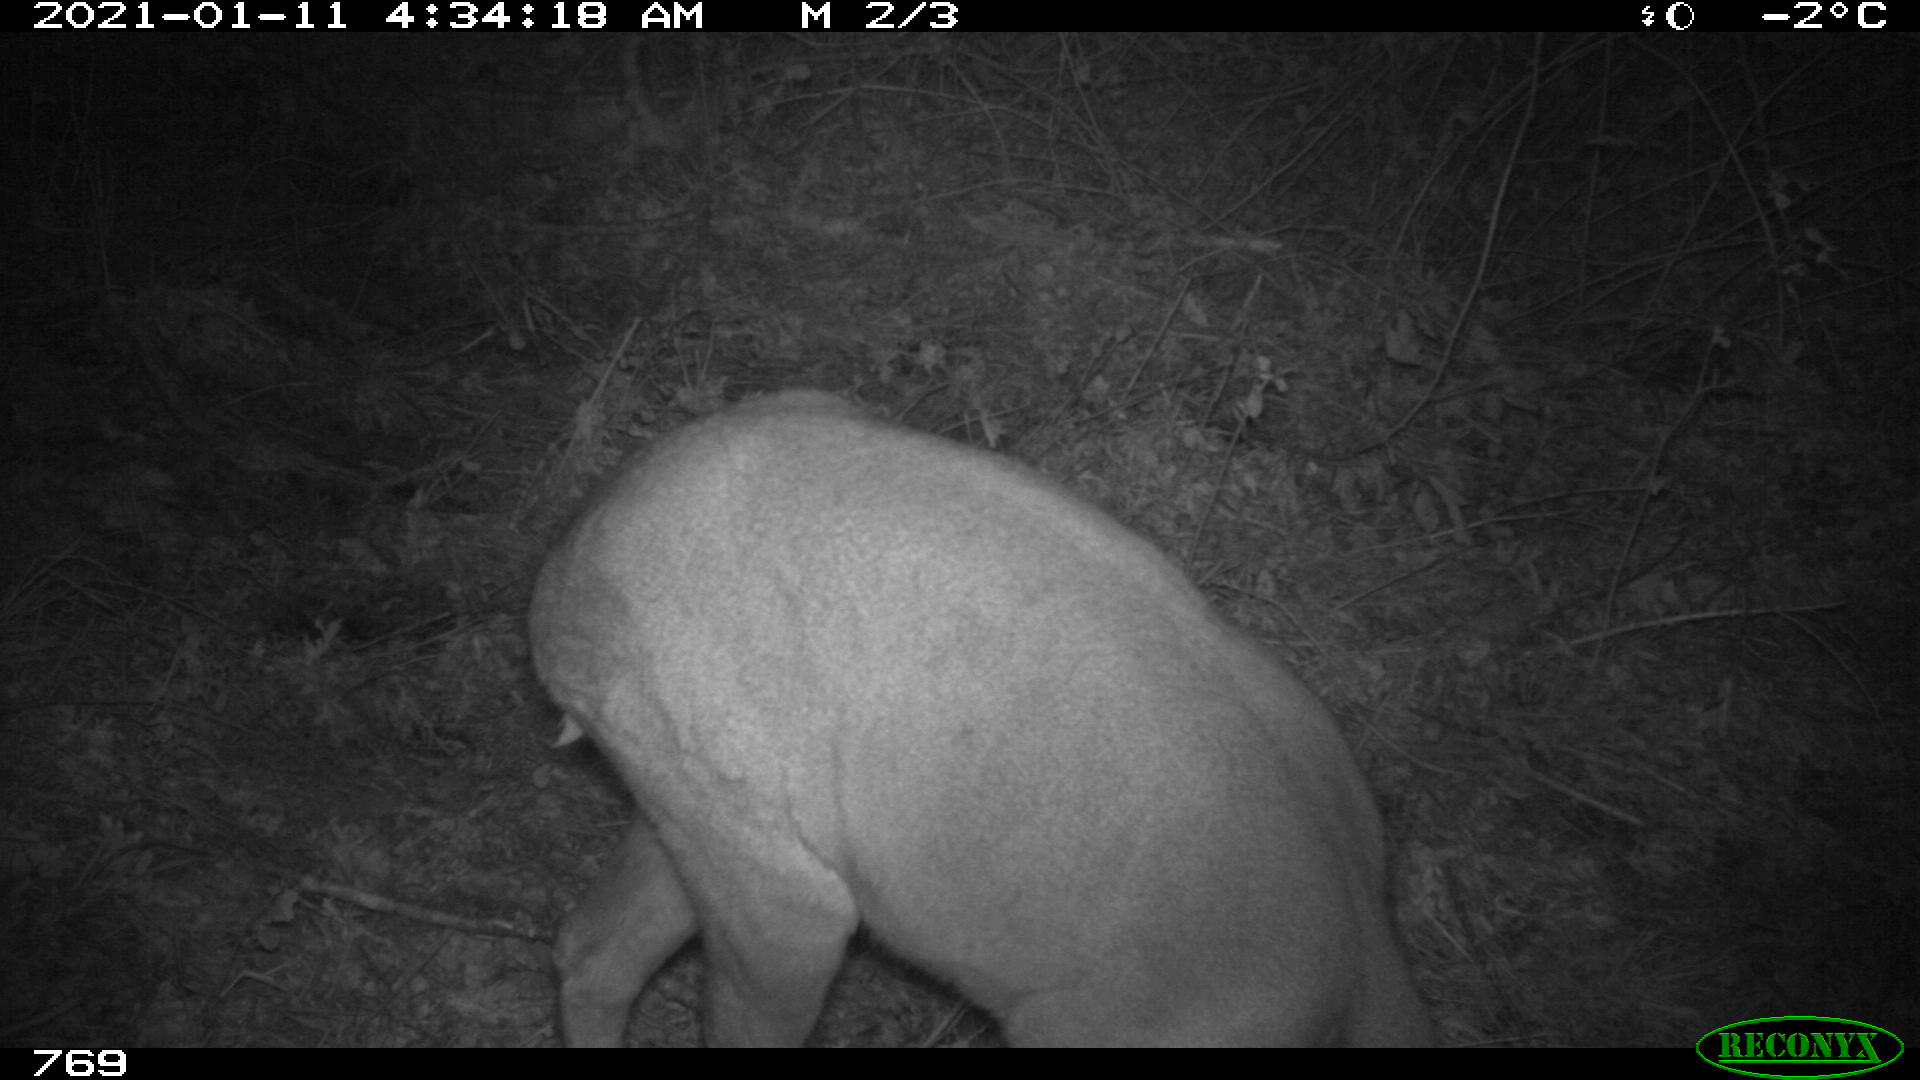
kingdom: Animalia
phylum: Chordata
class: Mammalia
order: Artiodactyla
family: Cervidae
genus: Capreolus
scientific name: Capreolus capreolus
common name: Western roe deer
